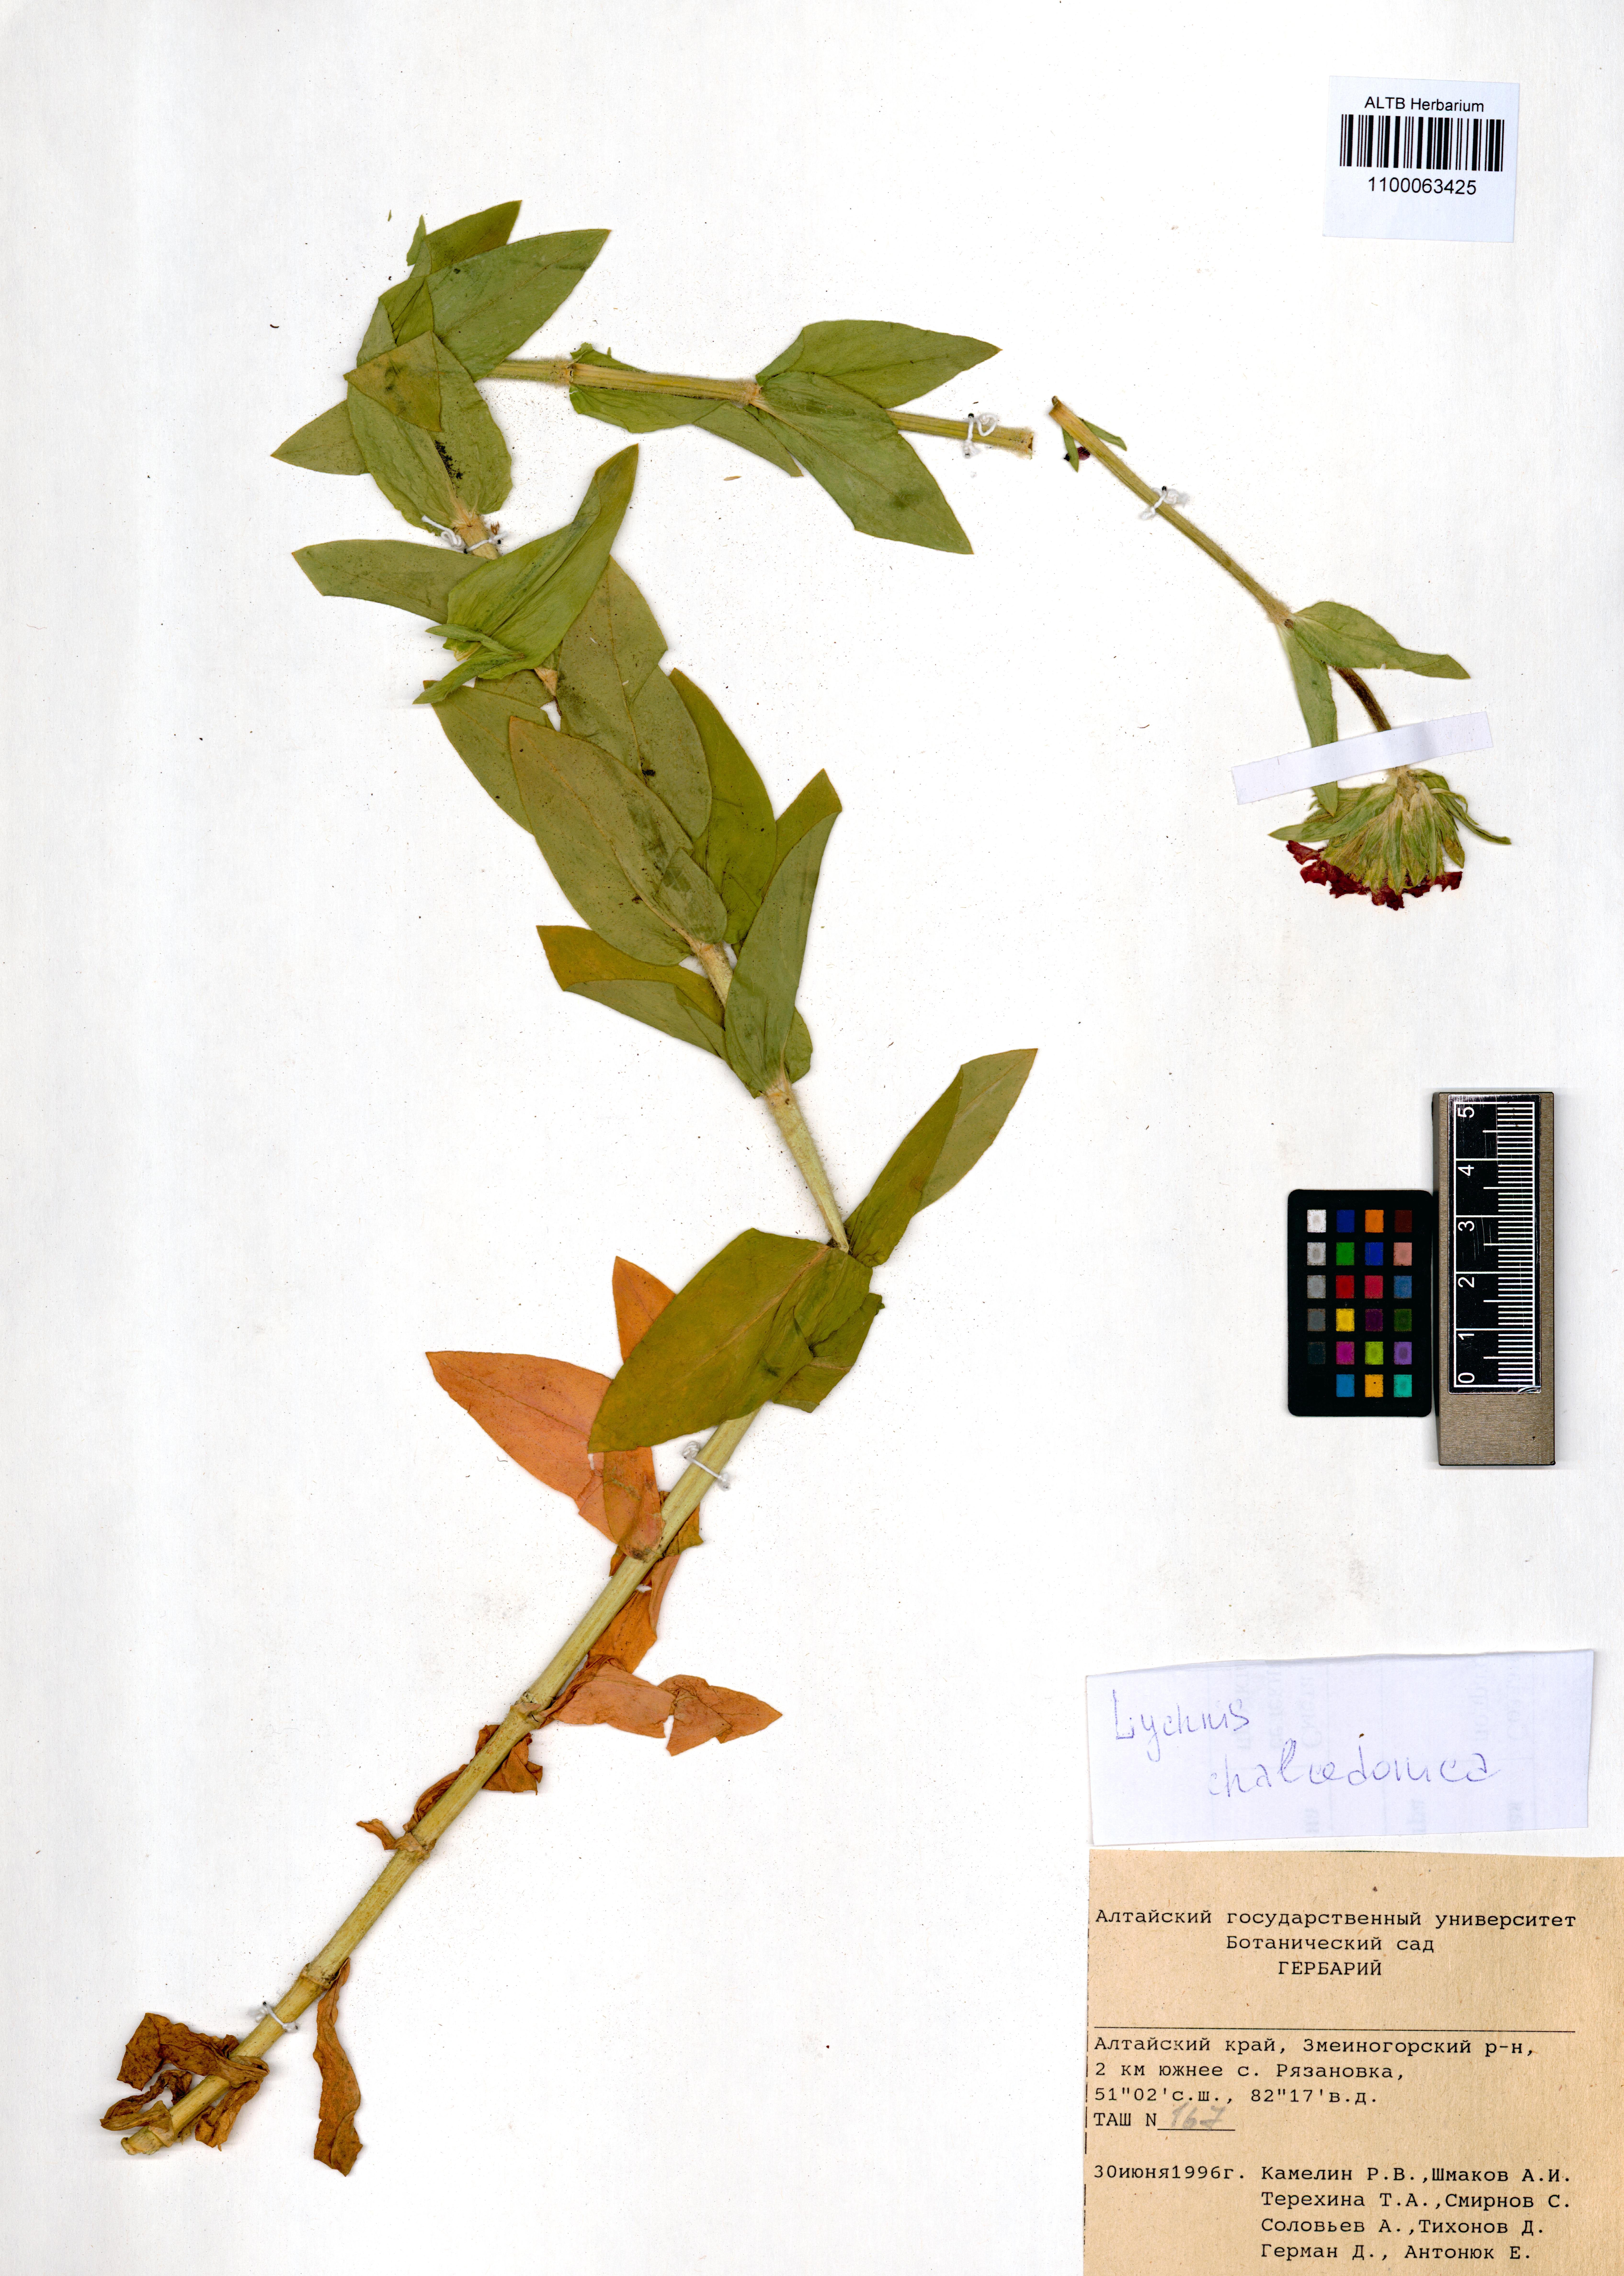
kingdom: Plantae
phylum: Tracheophyta
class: Magnoliopsida
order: Caryophyllales
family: Caryophyllaceae
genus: Silene
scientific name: Silene chalcedonica
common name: Maltese-cross
